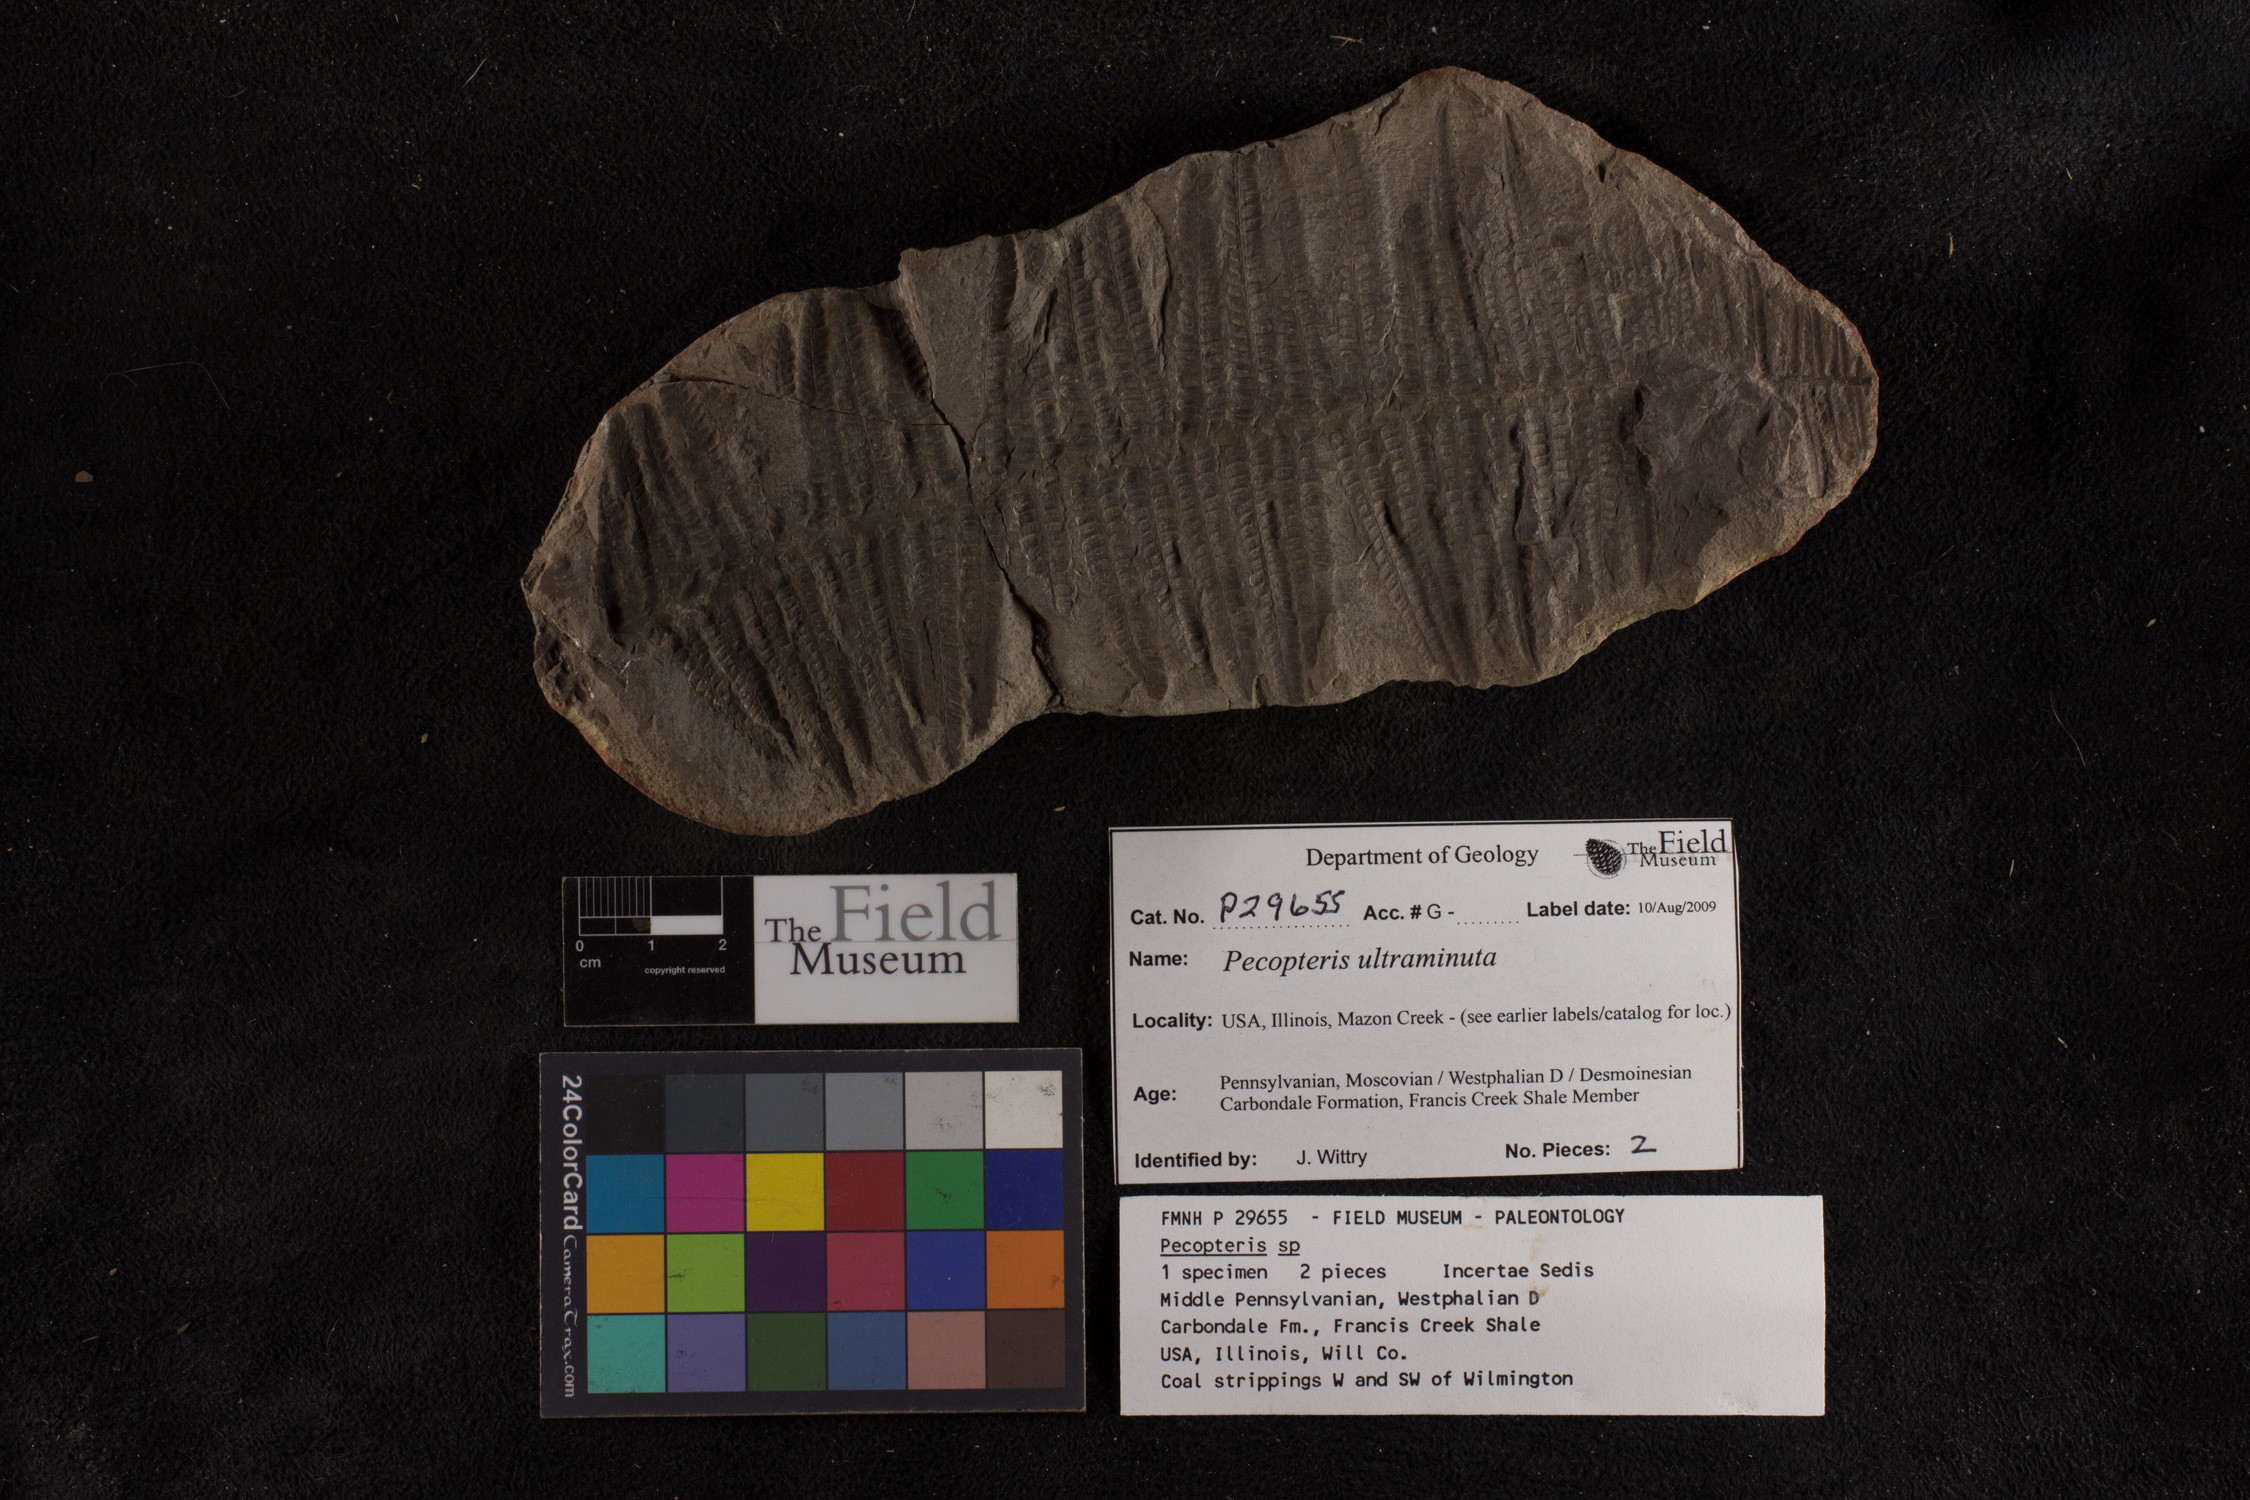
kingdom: Plantae
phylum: Tracheophyta
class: Polypodiopsida
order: Marattiales
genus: Cyathocarpus
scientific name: Cyathocarpus
